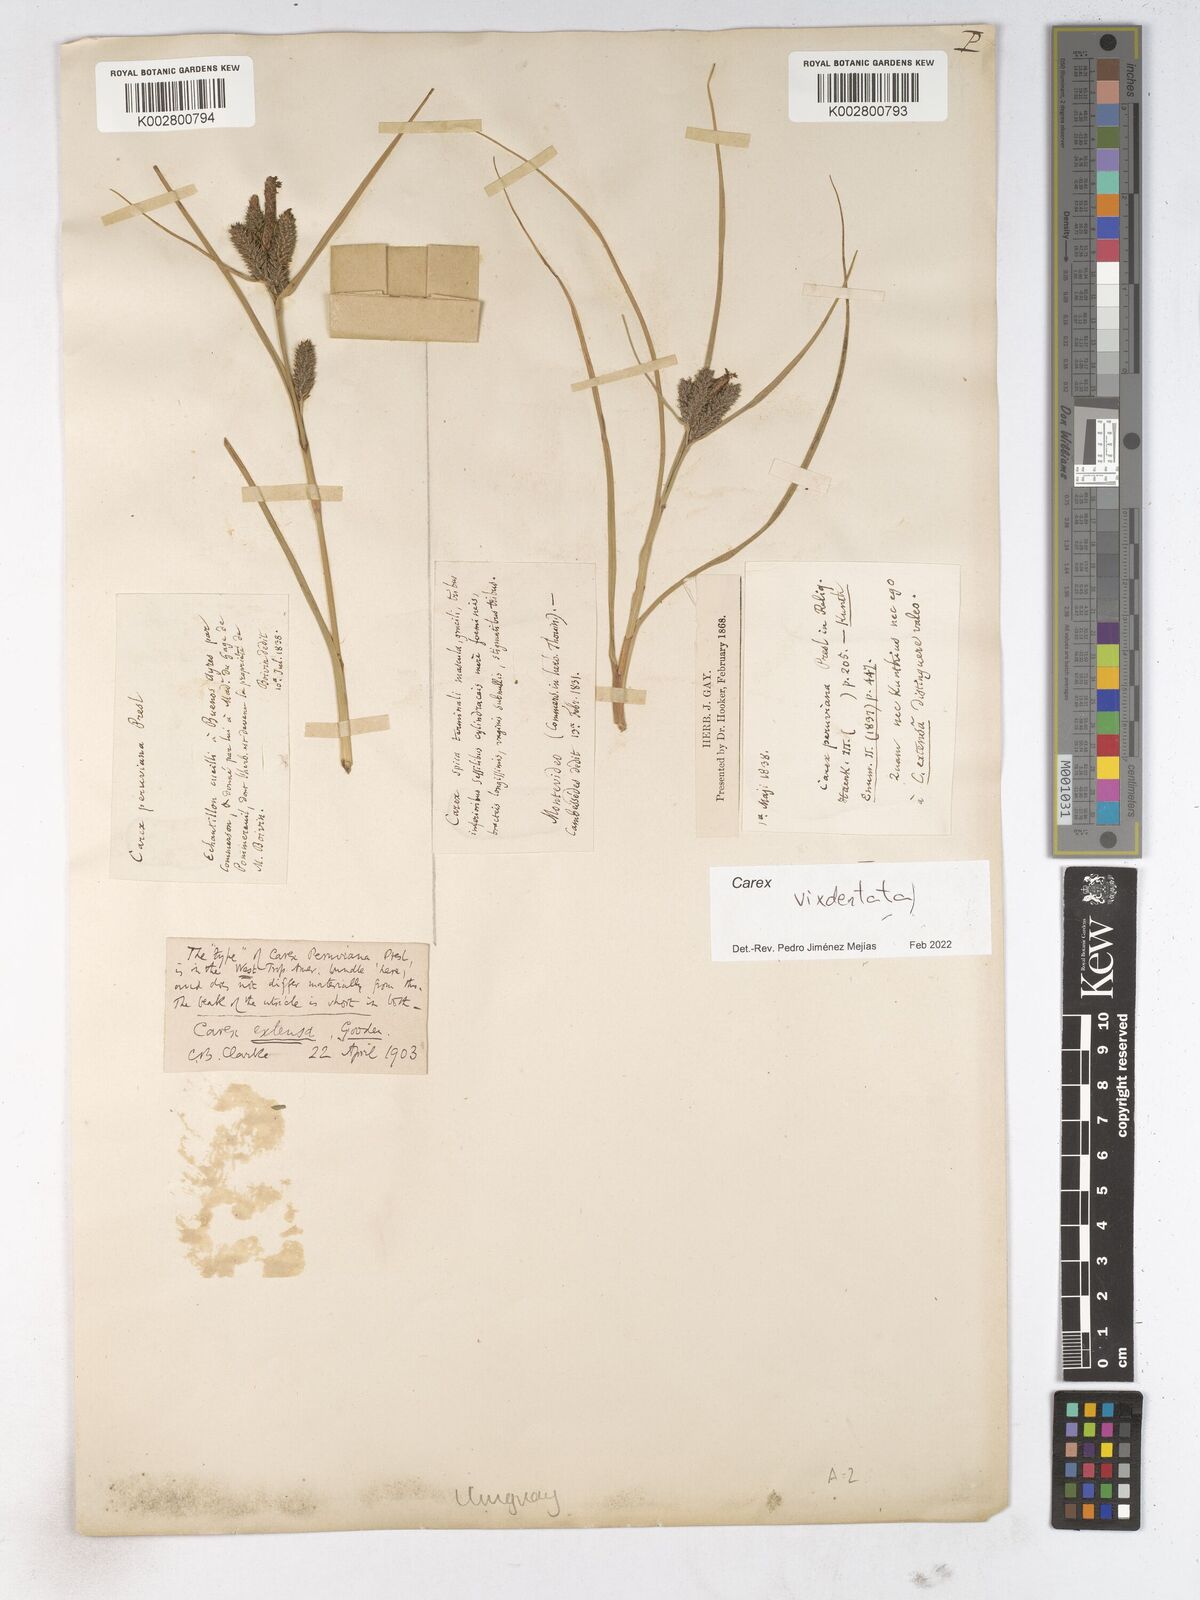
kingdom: Plantae
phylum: Tracheophyta
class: Liliopsida
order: Poales
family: Cyperaceae
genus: Carex
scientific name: Carex
